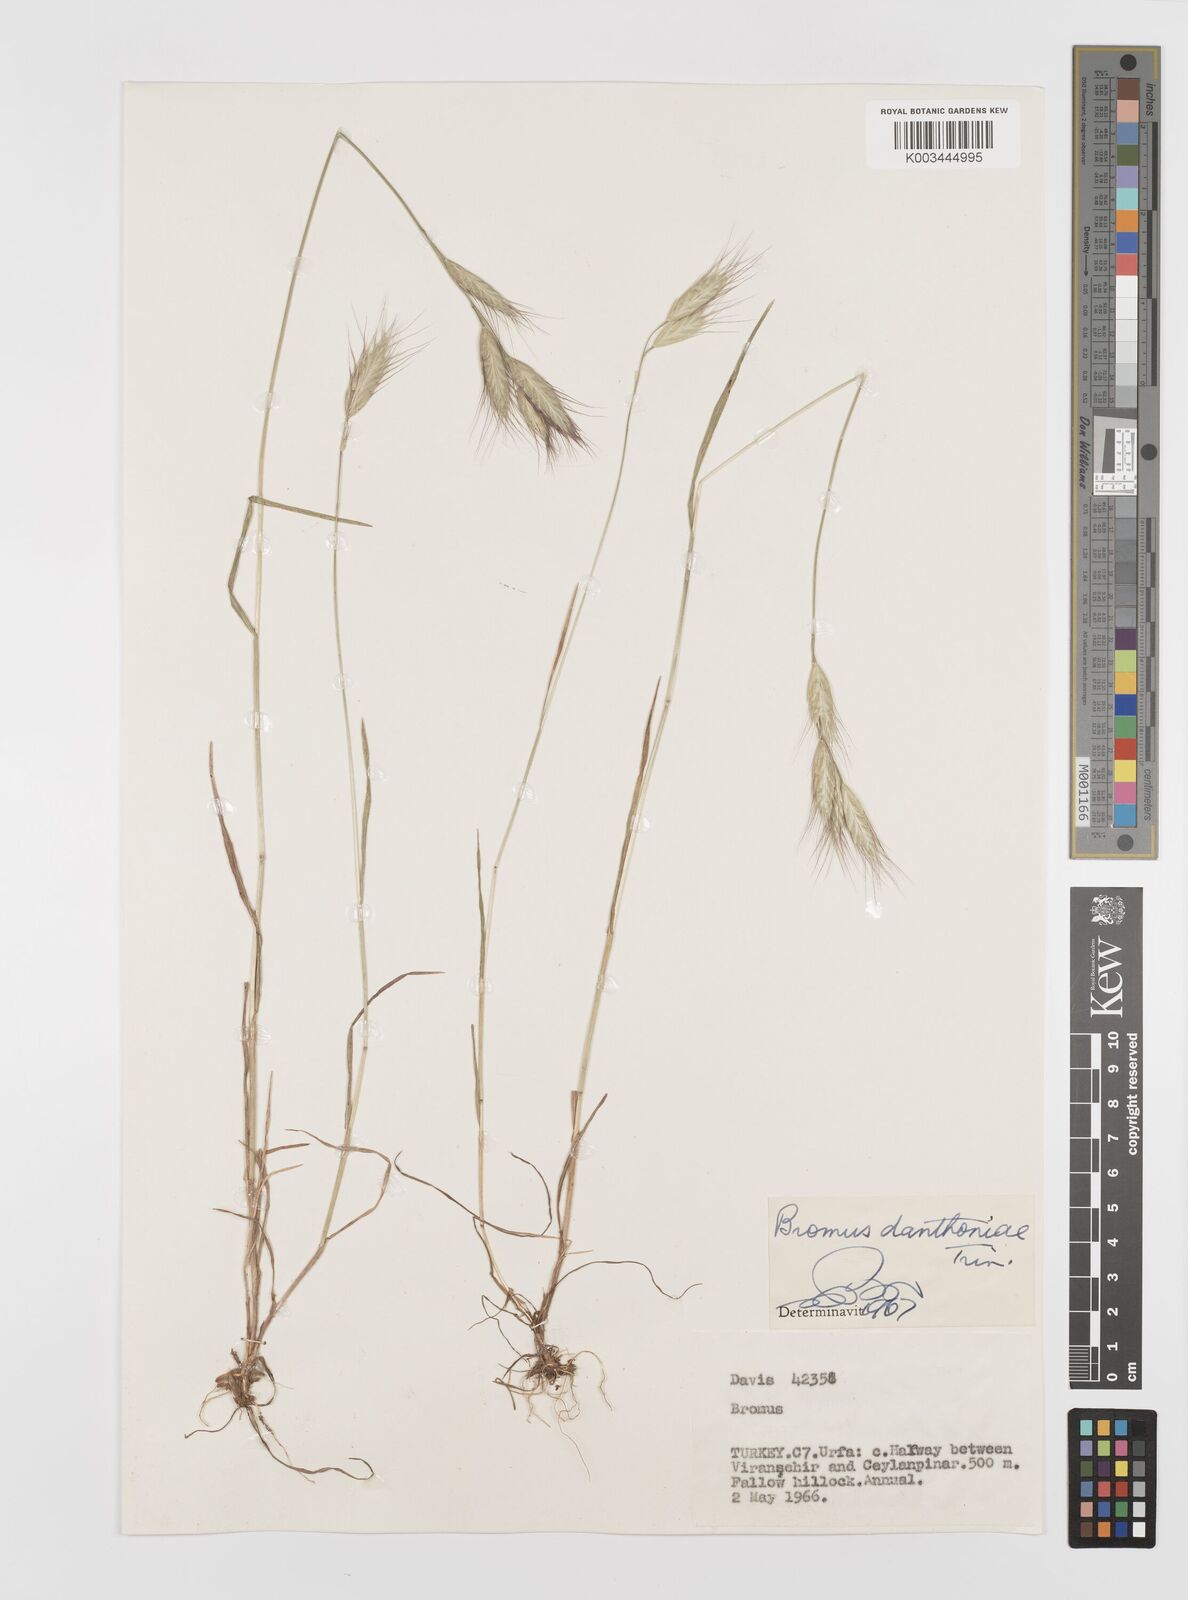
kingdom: Plantae
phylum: Tracheophyta
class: Liliopsida
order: Poales
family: Poaceae
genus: Bromus
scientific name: Bromus danthoniae
